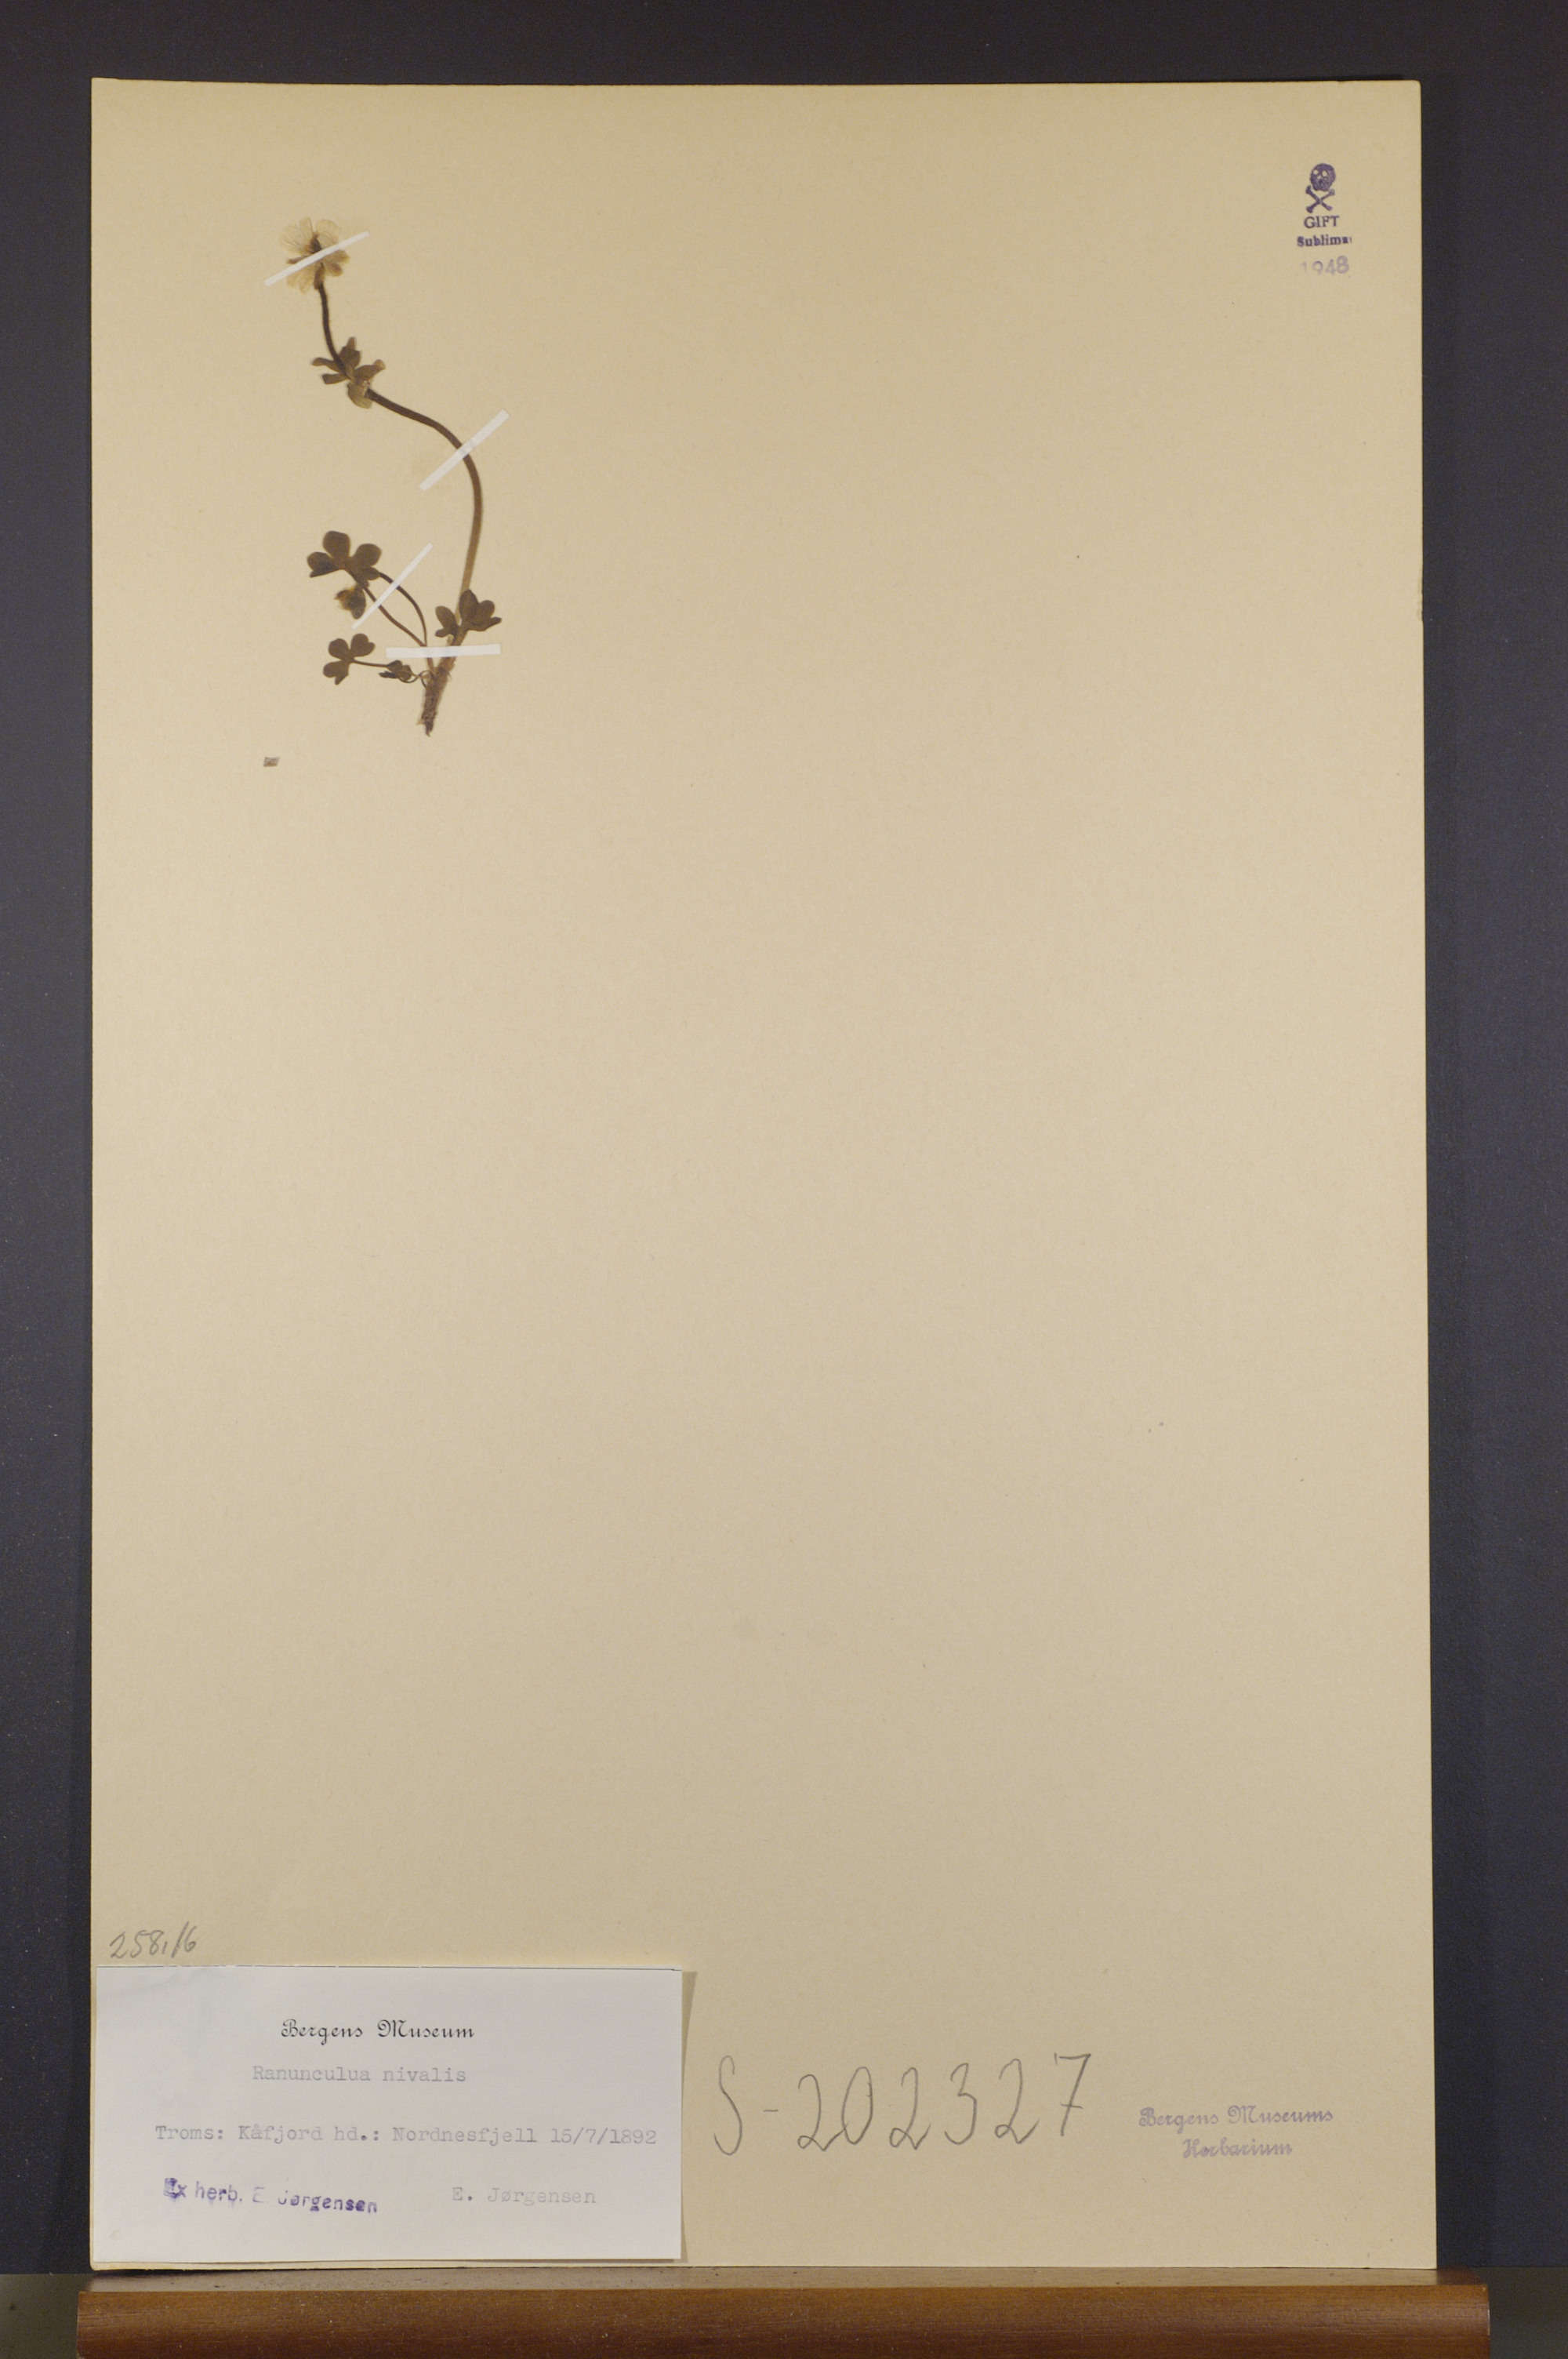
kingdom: Plantae
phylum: Tracheophyta
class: Magnoliopsida
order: Ranunculales
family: Ranunculaceae
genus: Ranunculus
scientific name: Ranunculus nivalis
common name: Snow buttercup
